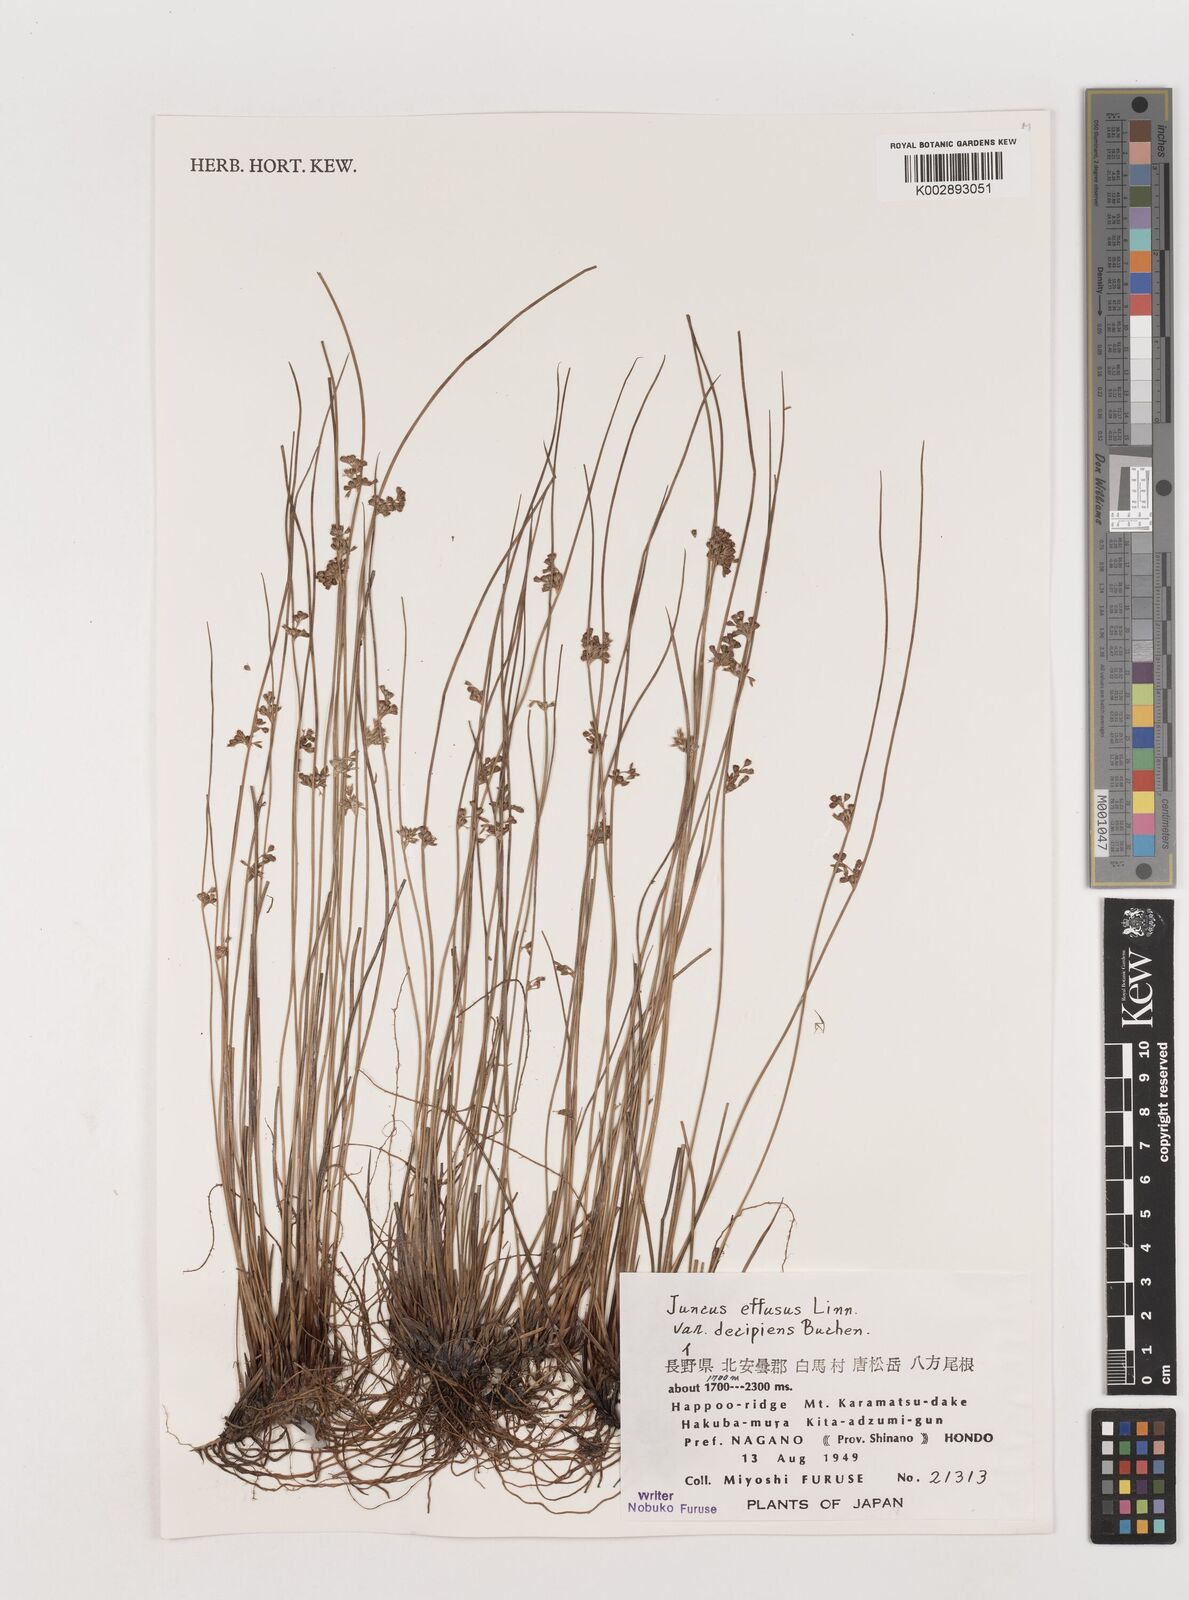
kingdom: Plantae
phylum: Tracheophyta
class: Liliopsida
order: Poales
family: Juncaceae
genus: Juncus
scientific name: Juncus effusus
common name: Soft rush
